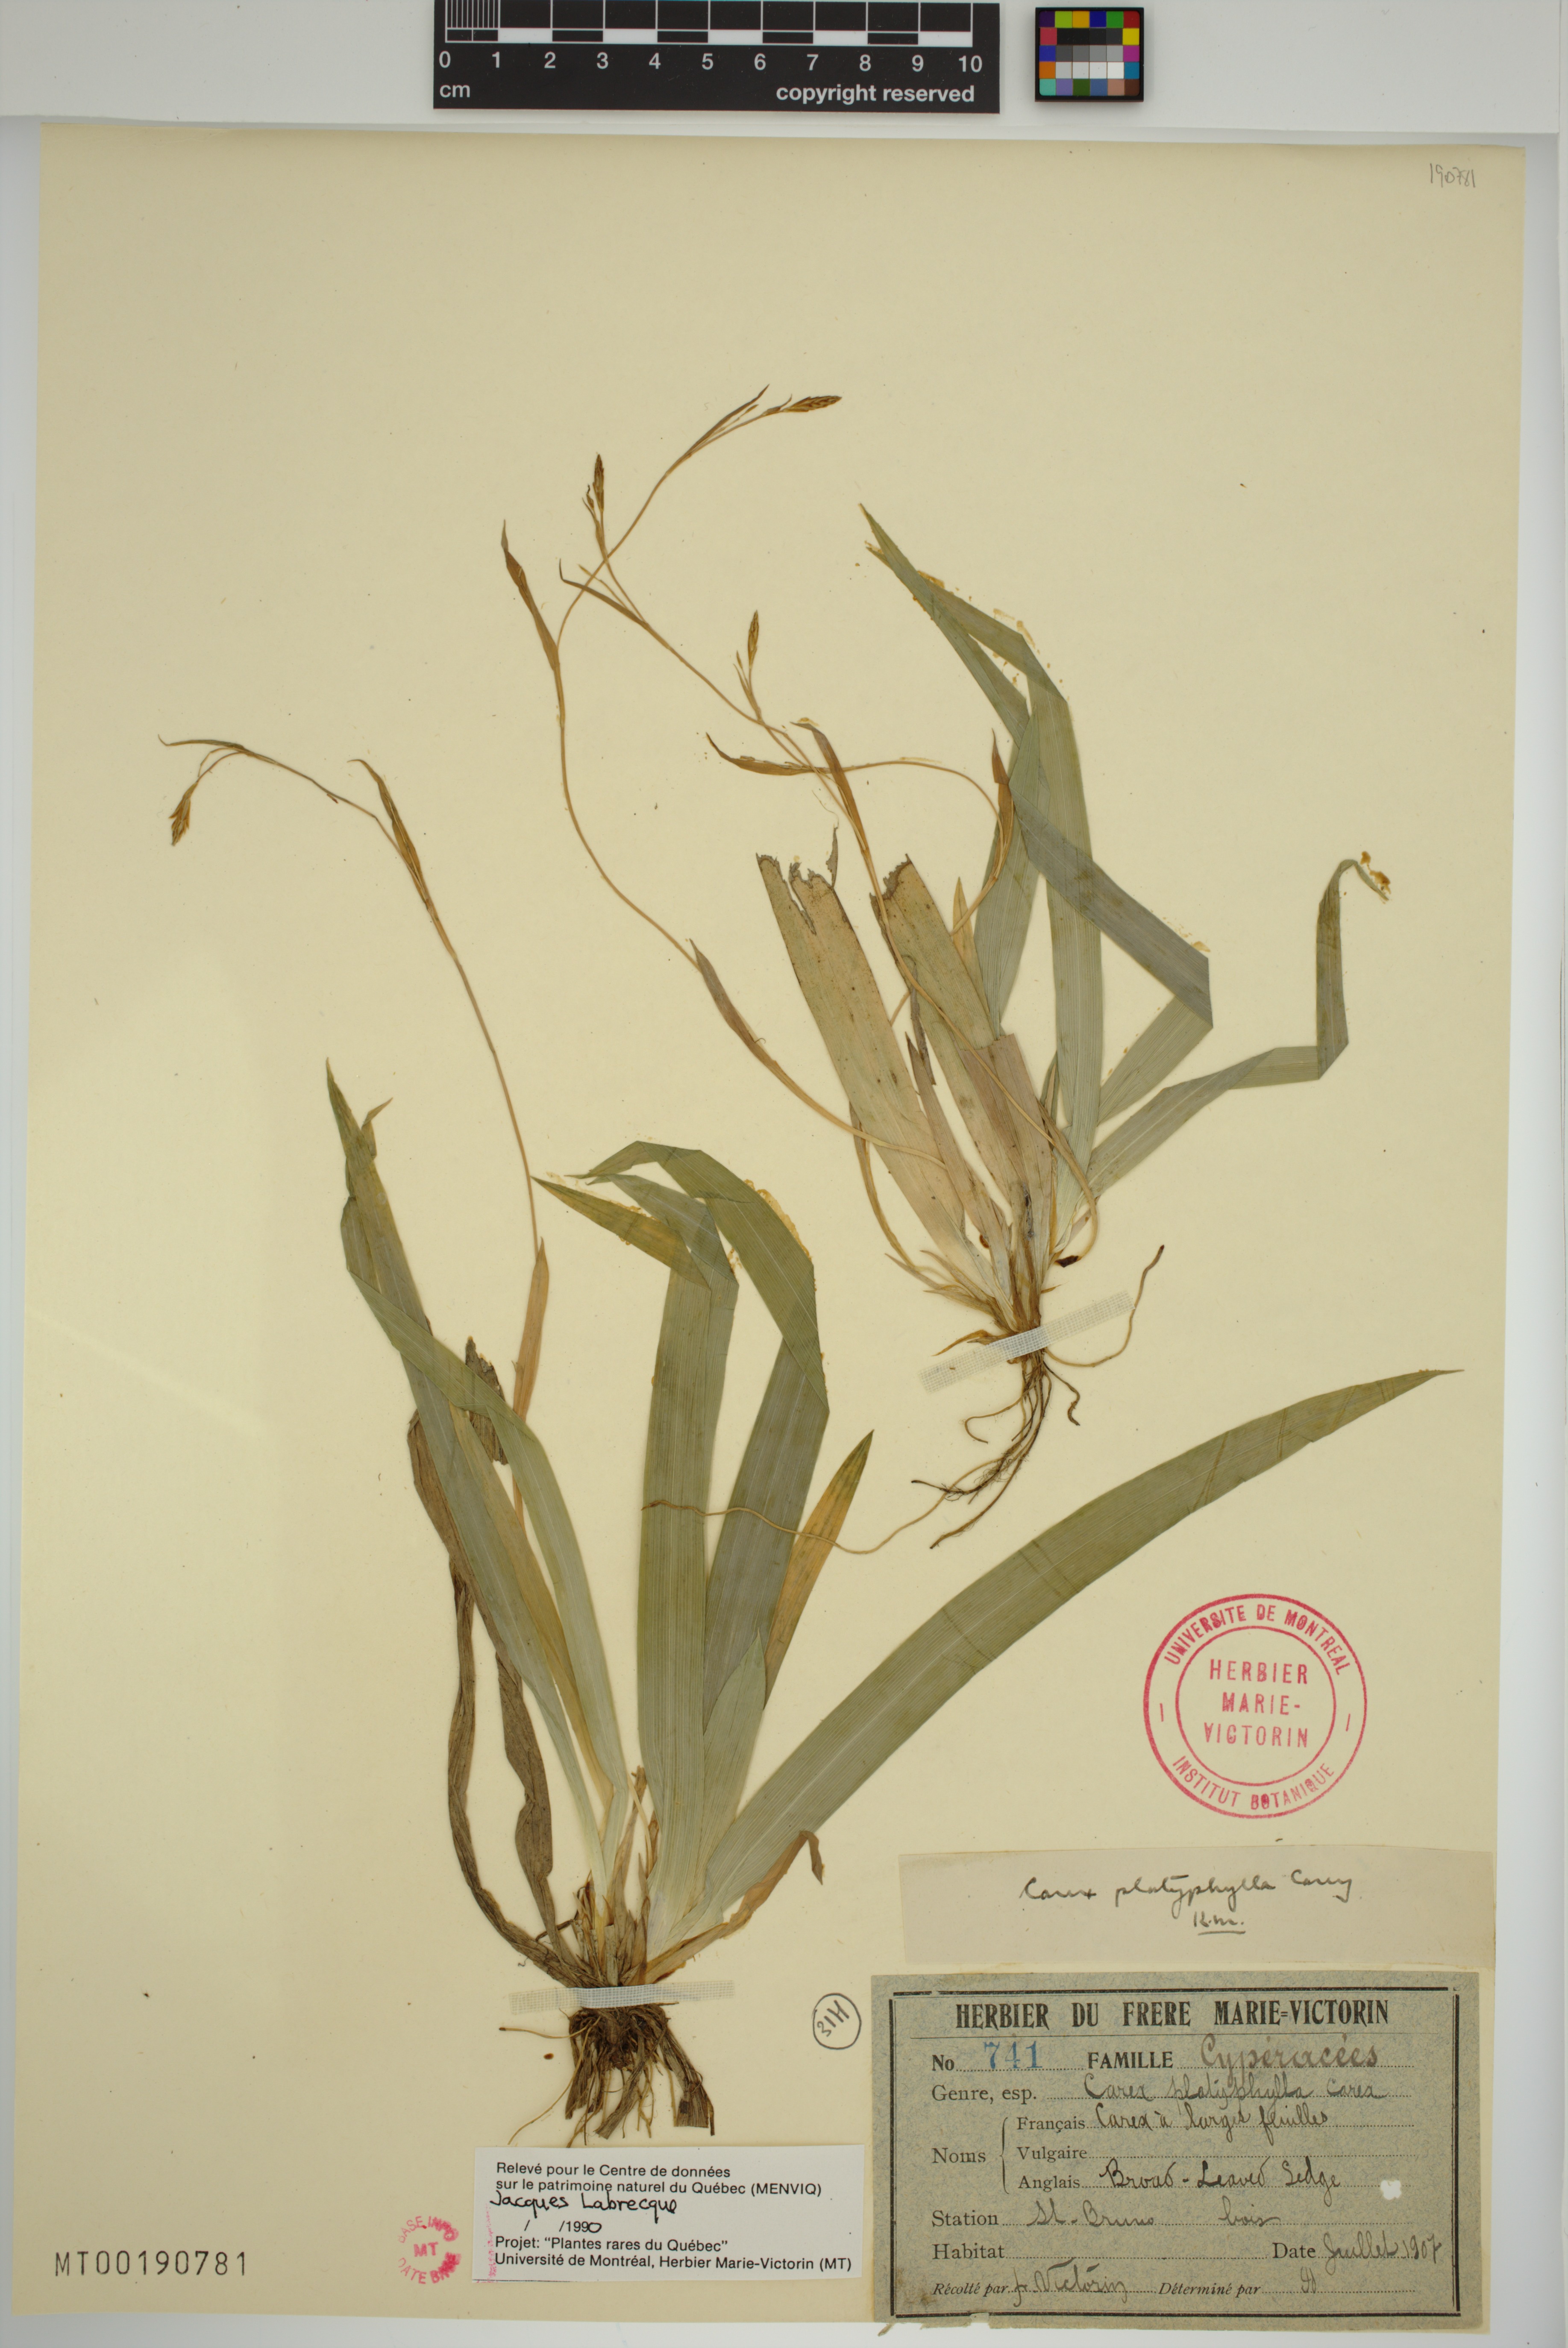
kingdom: Plantae
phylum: Tracheophyta
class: Liliopsida
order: Poales
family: Cyperaceae
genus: Carex
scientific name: Carex platyphylla
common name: Broad-leaved sedge
